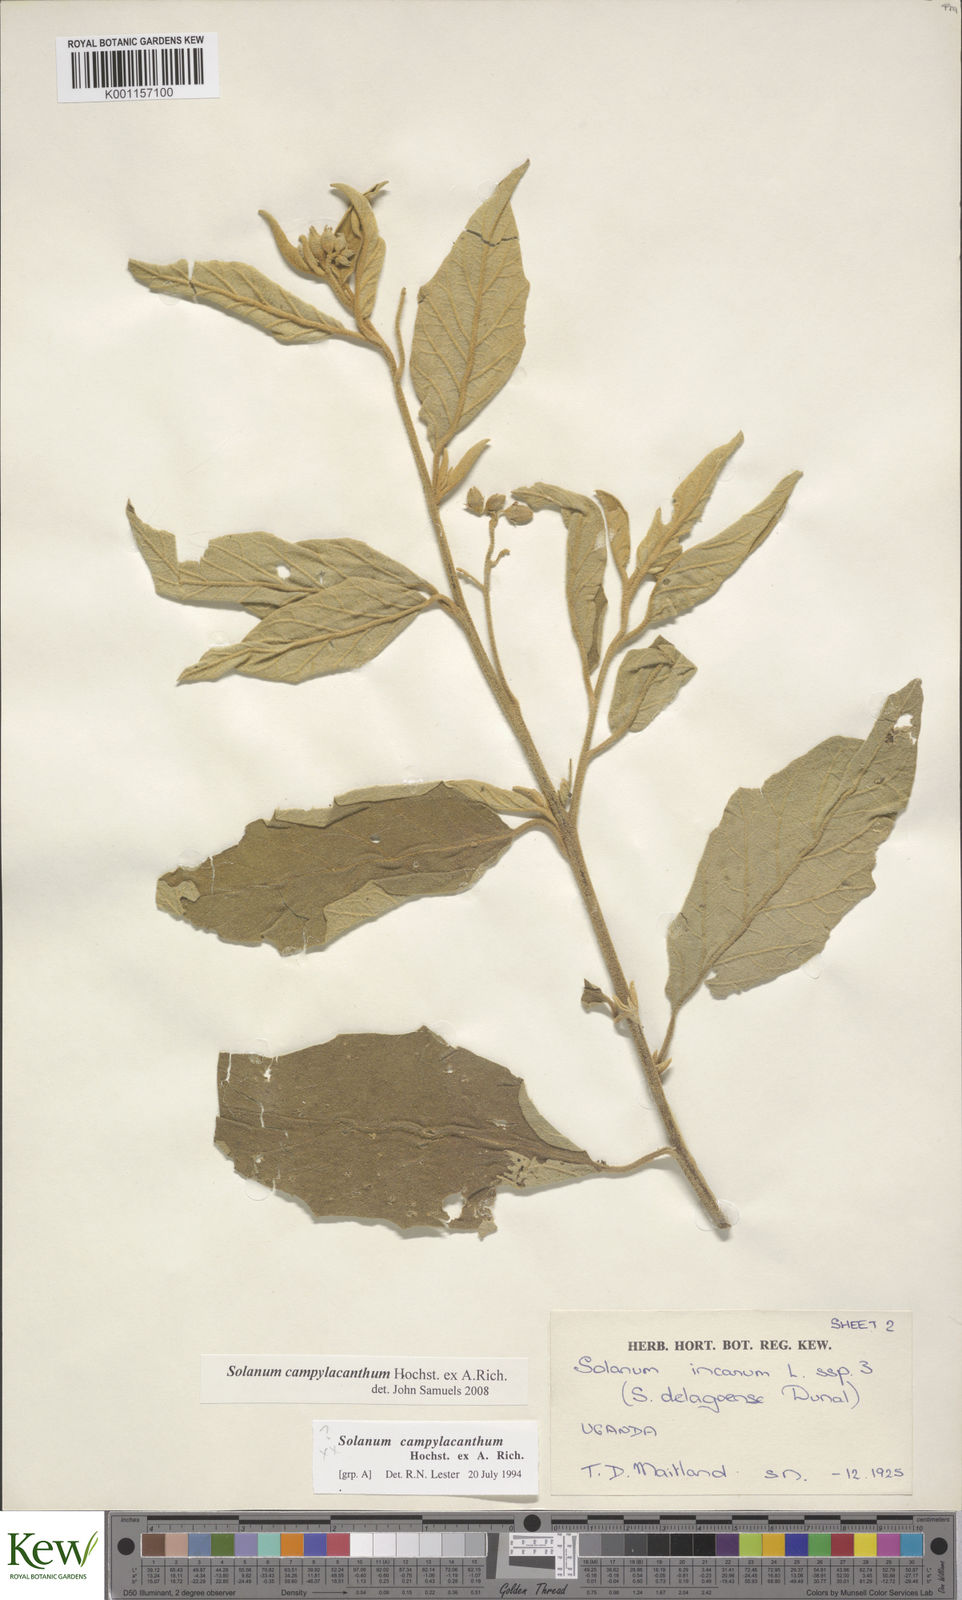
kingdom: Plantae
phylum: Tracheophyta
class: Magnoliopsida
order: Solanales
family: Solanaceae
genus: Solanum
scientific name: Solanum campylacanthum
